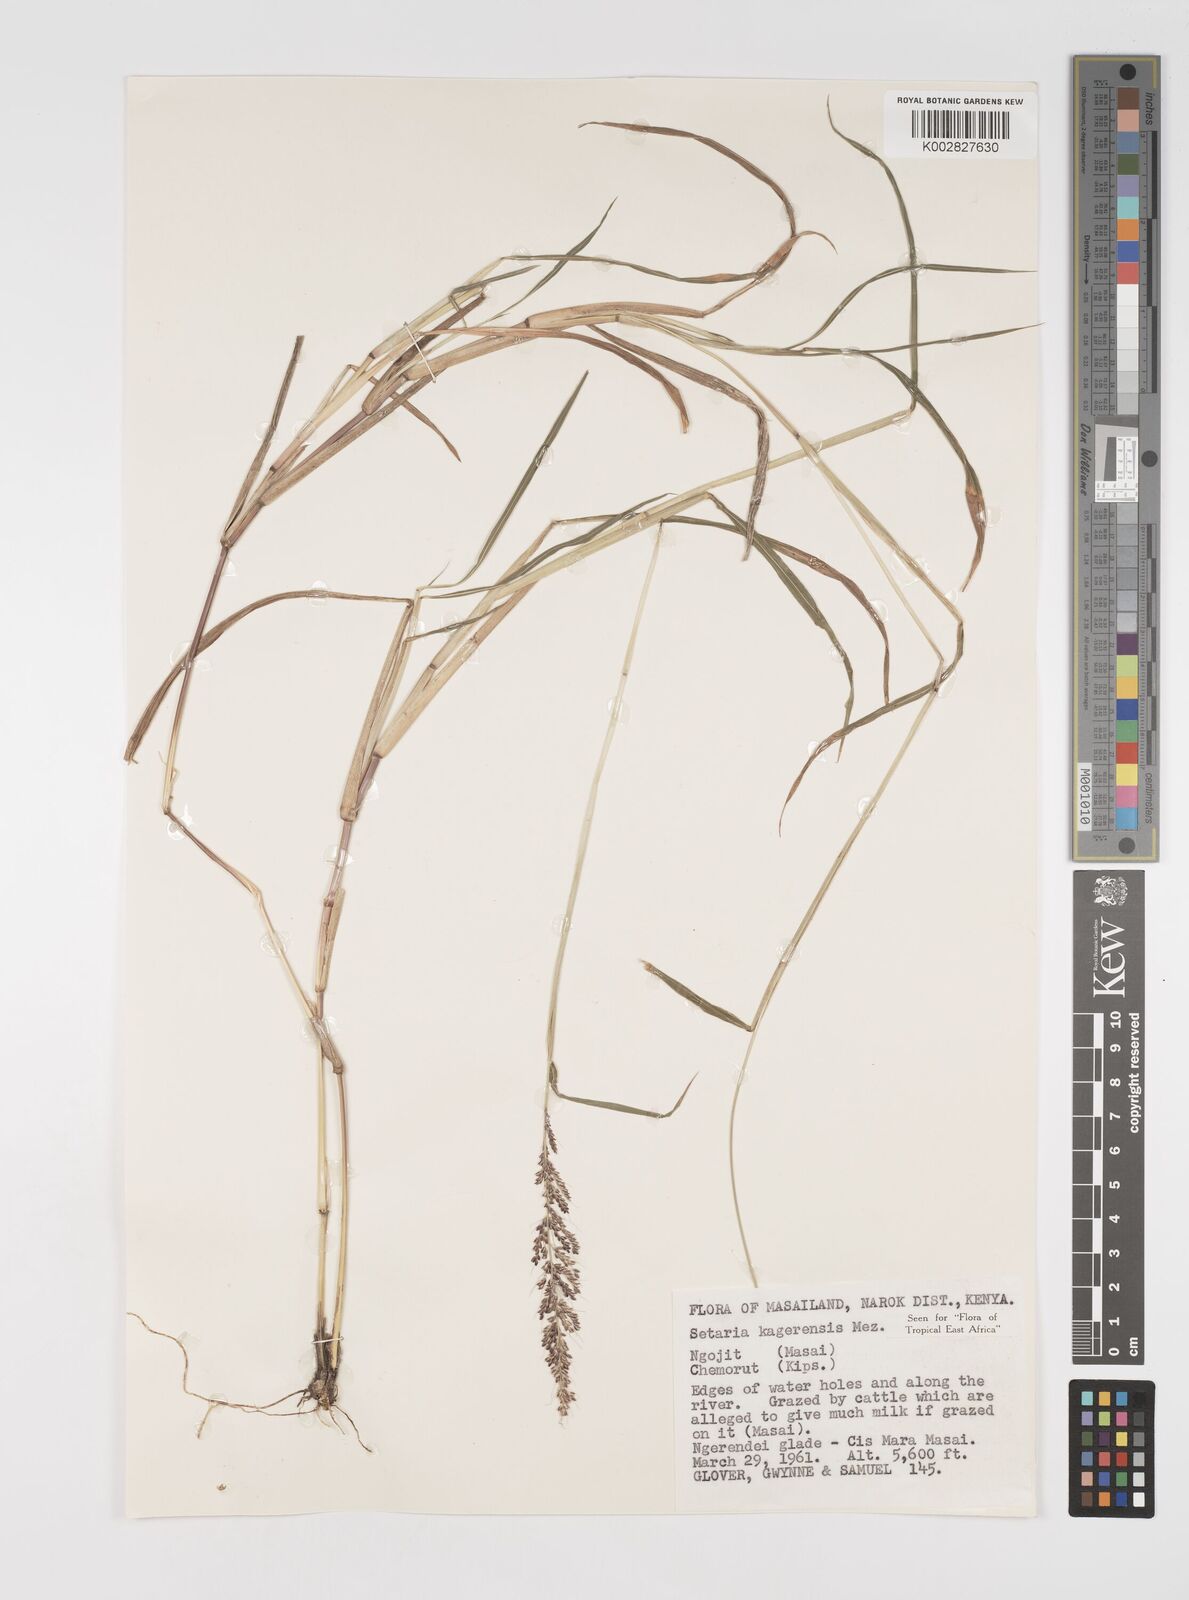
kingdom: Plantae
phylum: Tracheophyta
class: Liliopsida
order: Poales
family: Poaceae
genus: Setaria
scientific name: Setaria kagerensis
